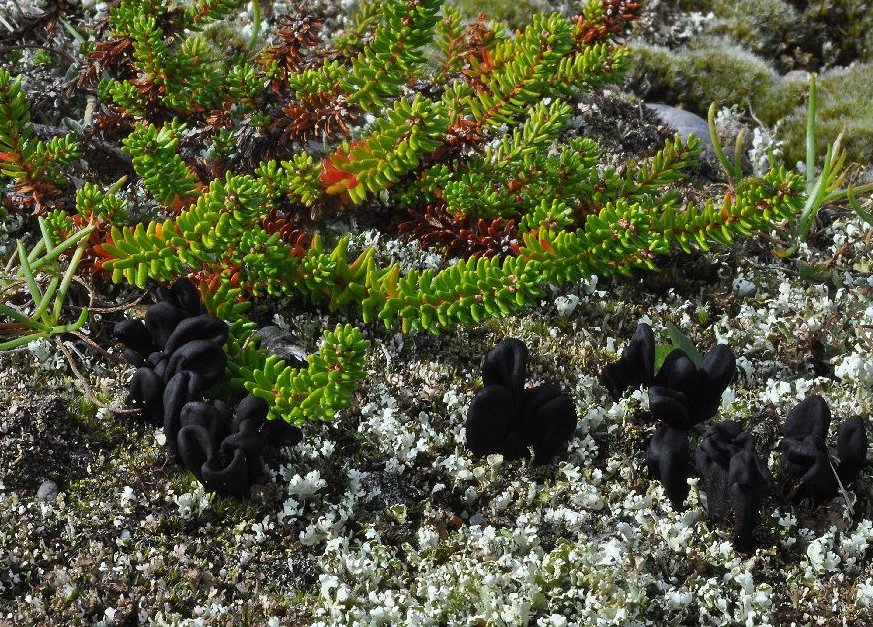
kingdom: Fungi
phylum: Ascomycota
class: Geoglossomycetes
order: Geoglossales
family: Geoglossaceae
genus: Sabuloglossum
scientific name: Sabuloglossum arenarium
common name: klit-jordtunge
